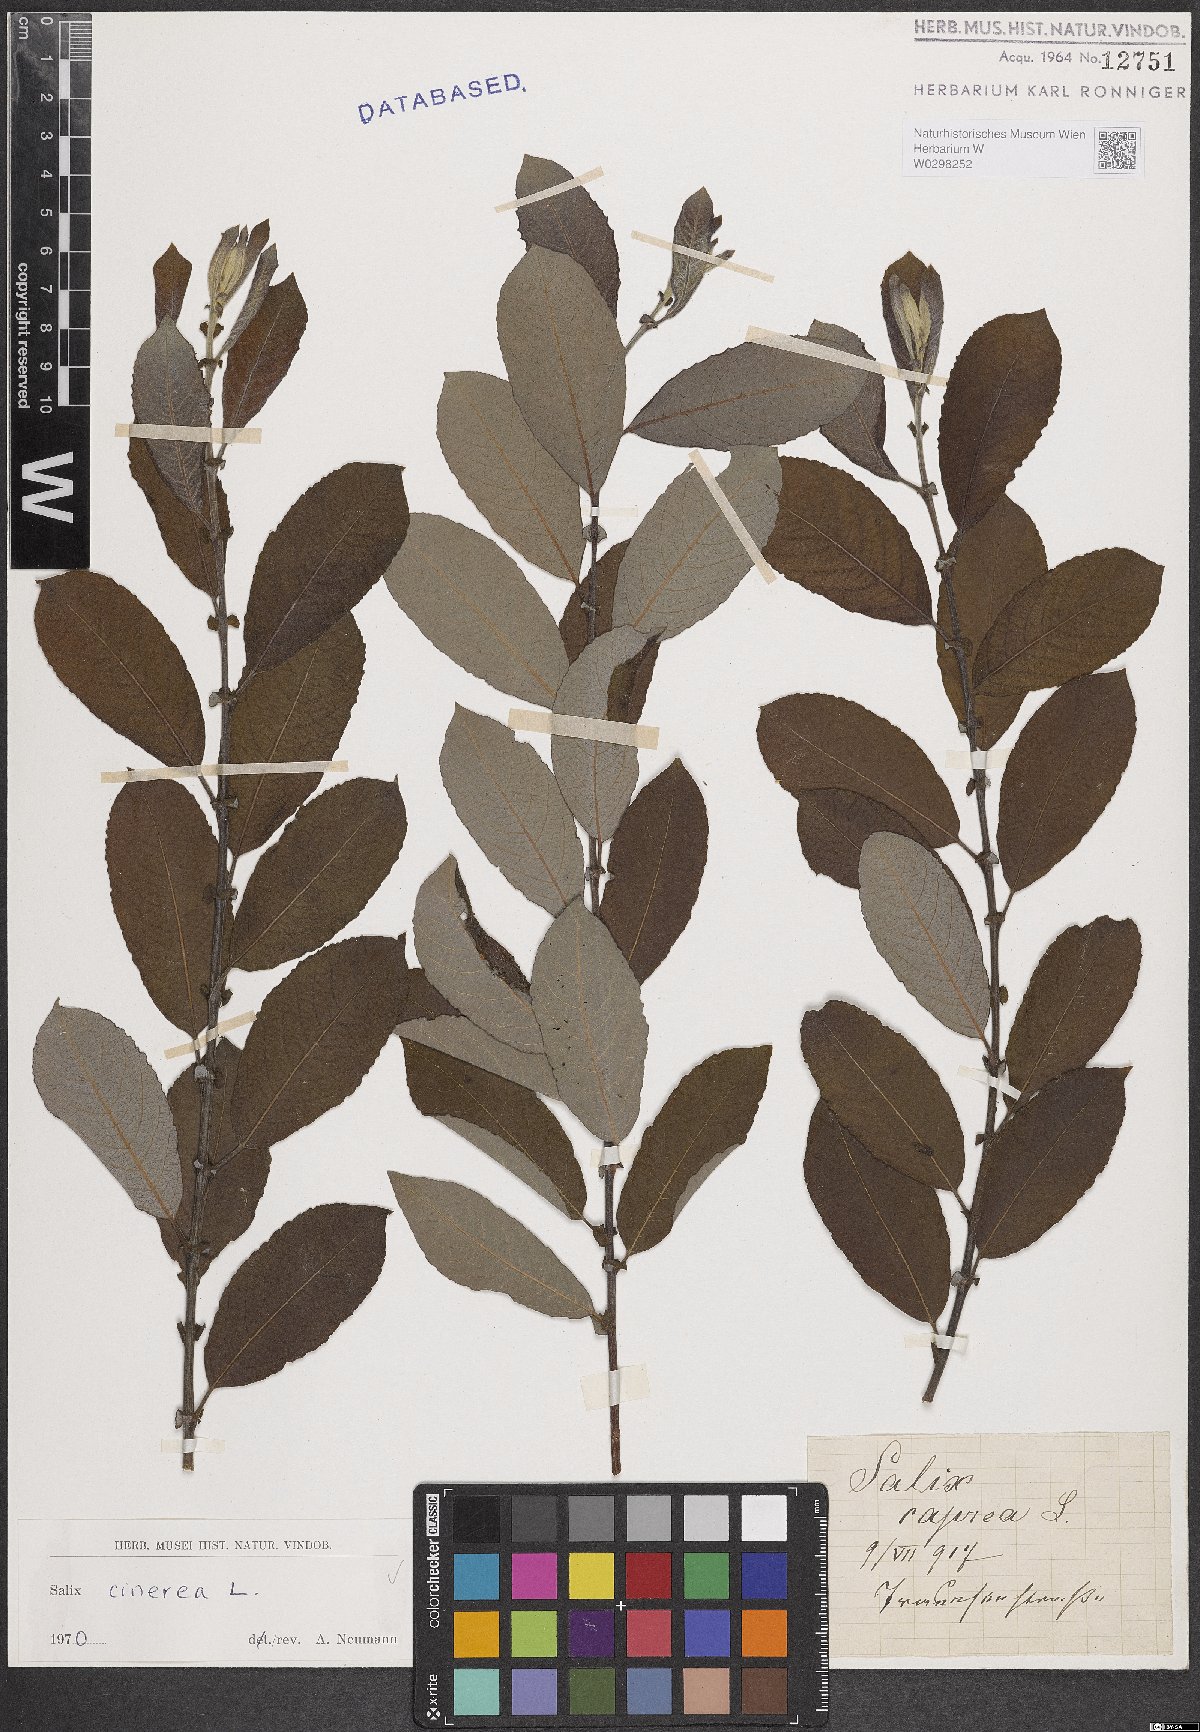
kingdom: Plantae
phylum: Tracheophyta
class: Magnoliopsida
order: Malpighiales
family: Salicaceae
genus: Salix
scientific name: Salix cinerea
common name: Common sallow
